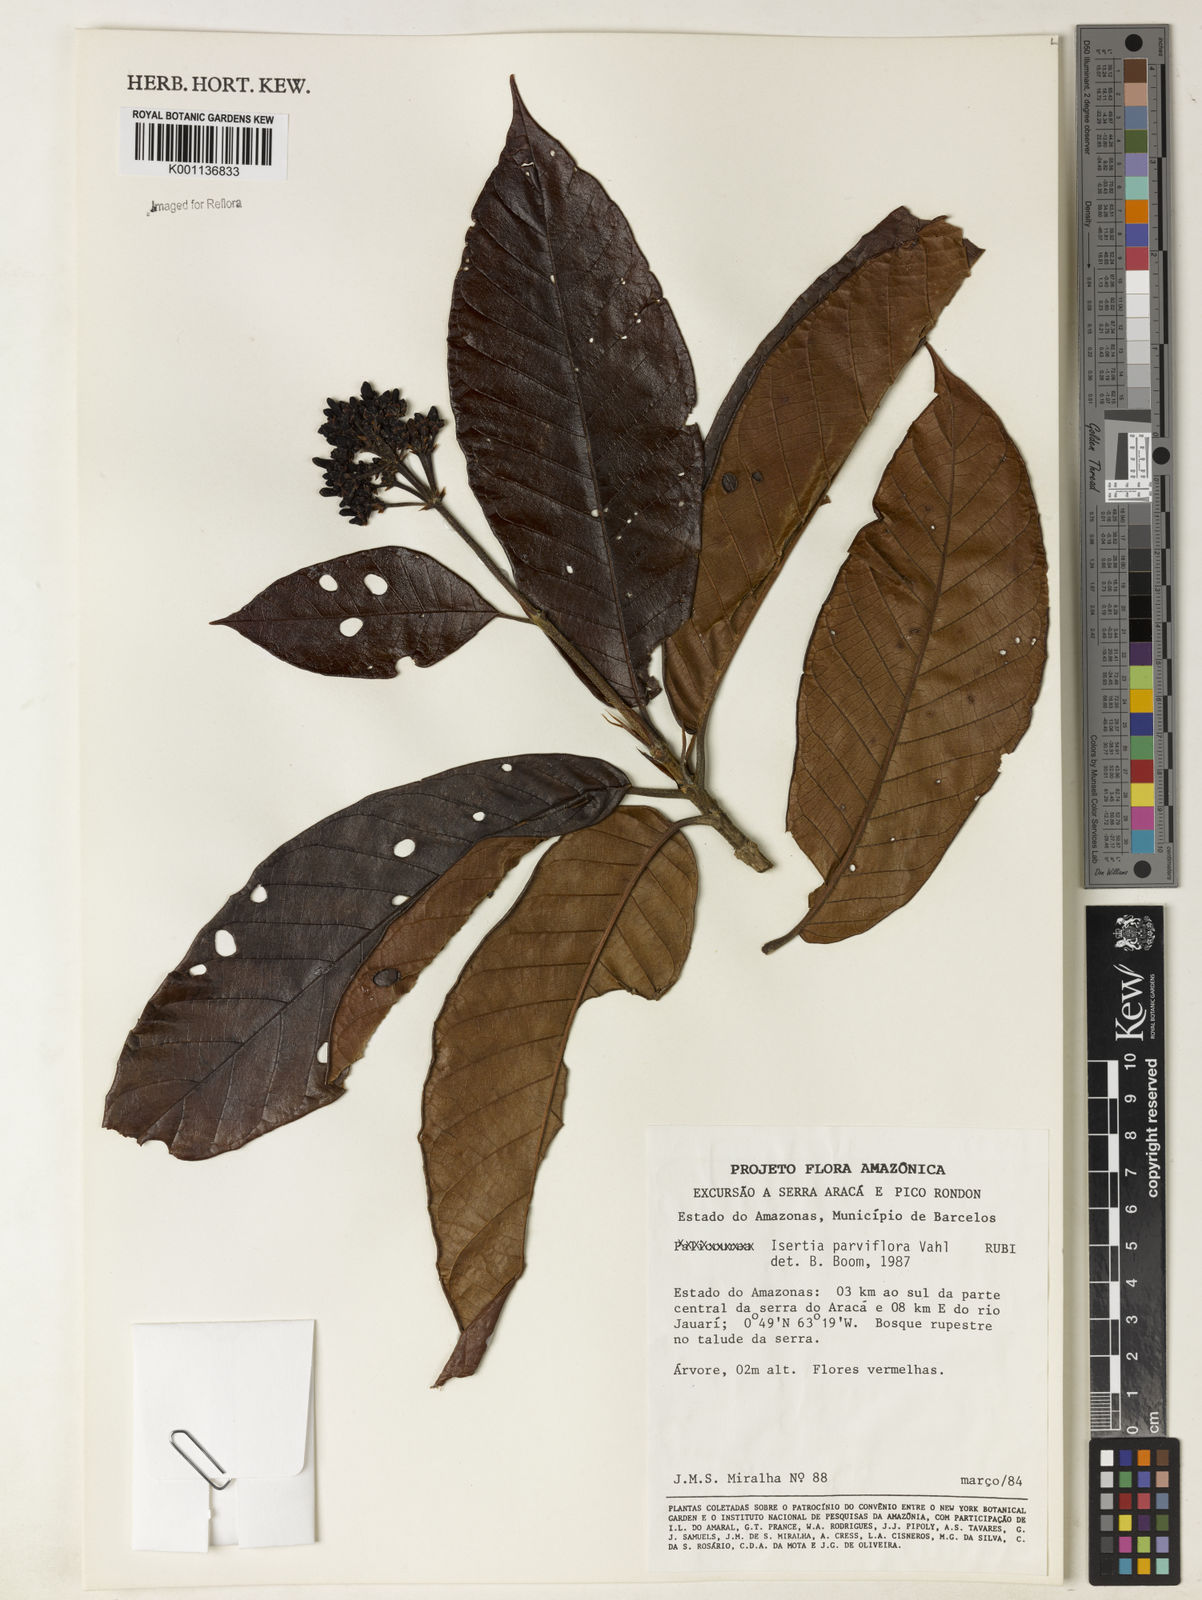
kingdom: Plantae
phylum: Tracheophyta
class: Magnoliopsida
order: Gentianales
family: Rubiaceae
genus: Isertia
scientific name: Isertia parviflora
